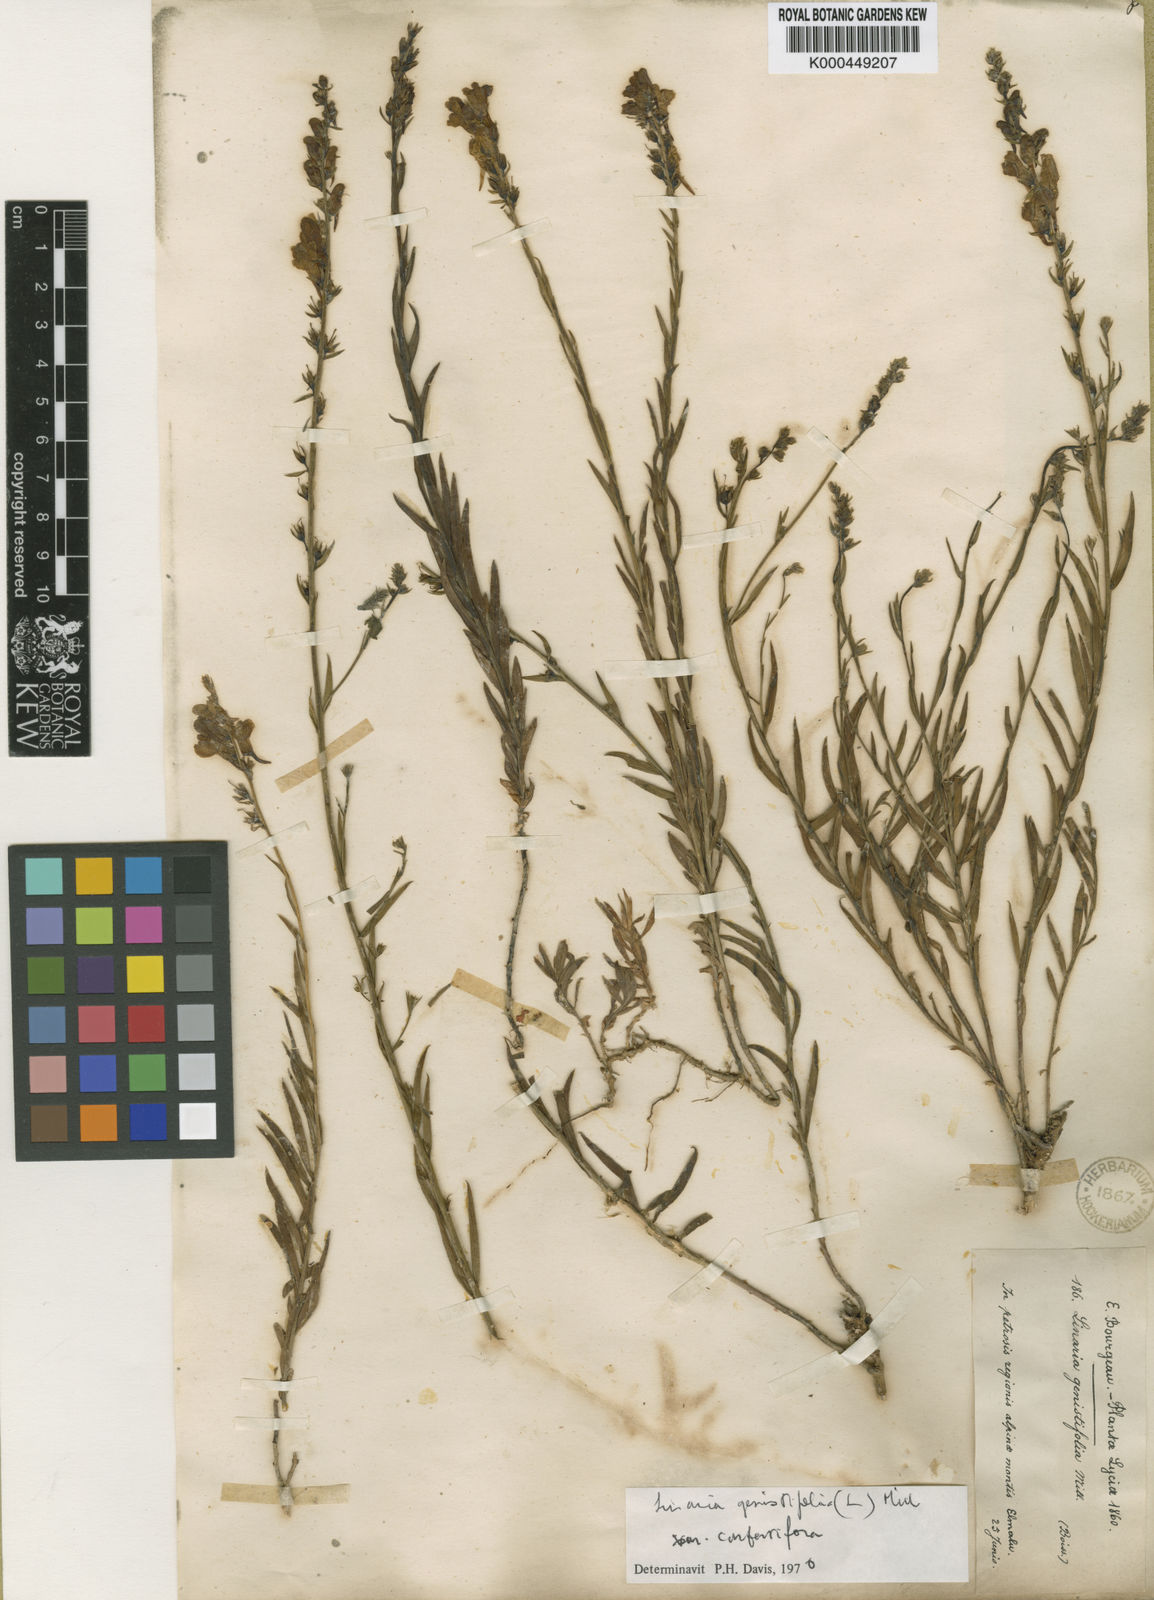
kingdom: Plantae
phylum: Tracheophyta
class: Magnoliopsida
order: Lamiales
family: Plantaginaceae
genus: Linaria
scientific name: Linaria genistifolia
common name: Broomleaf toadflax
